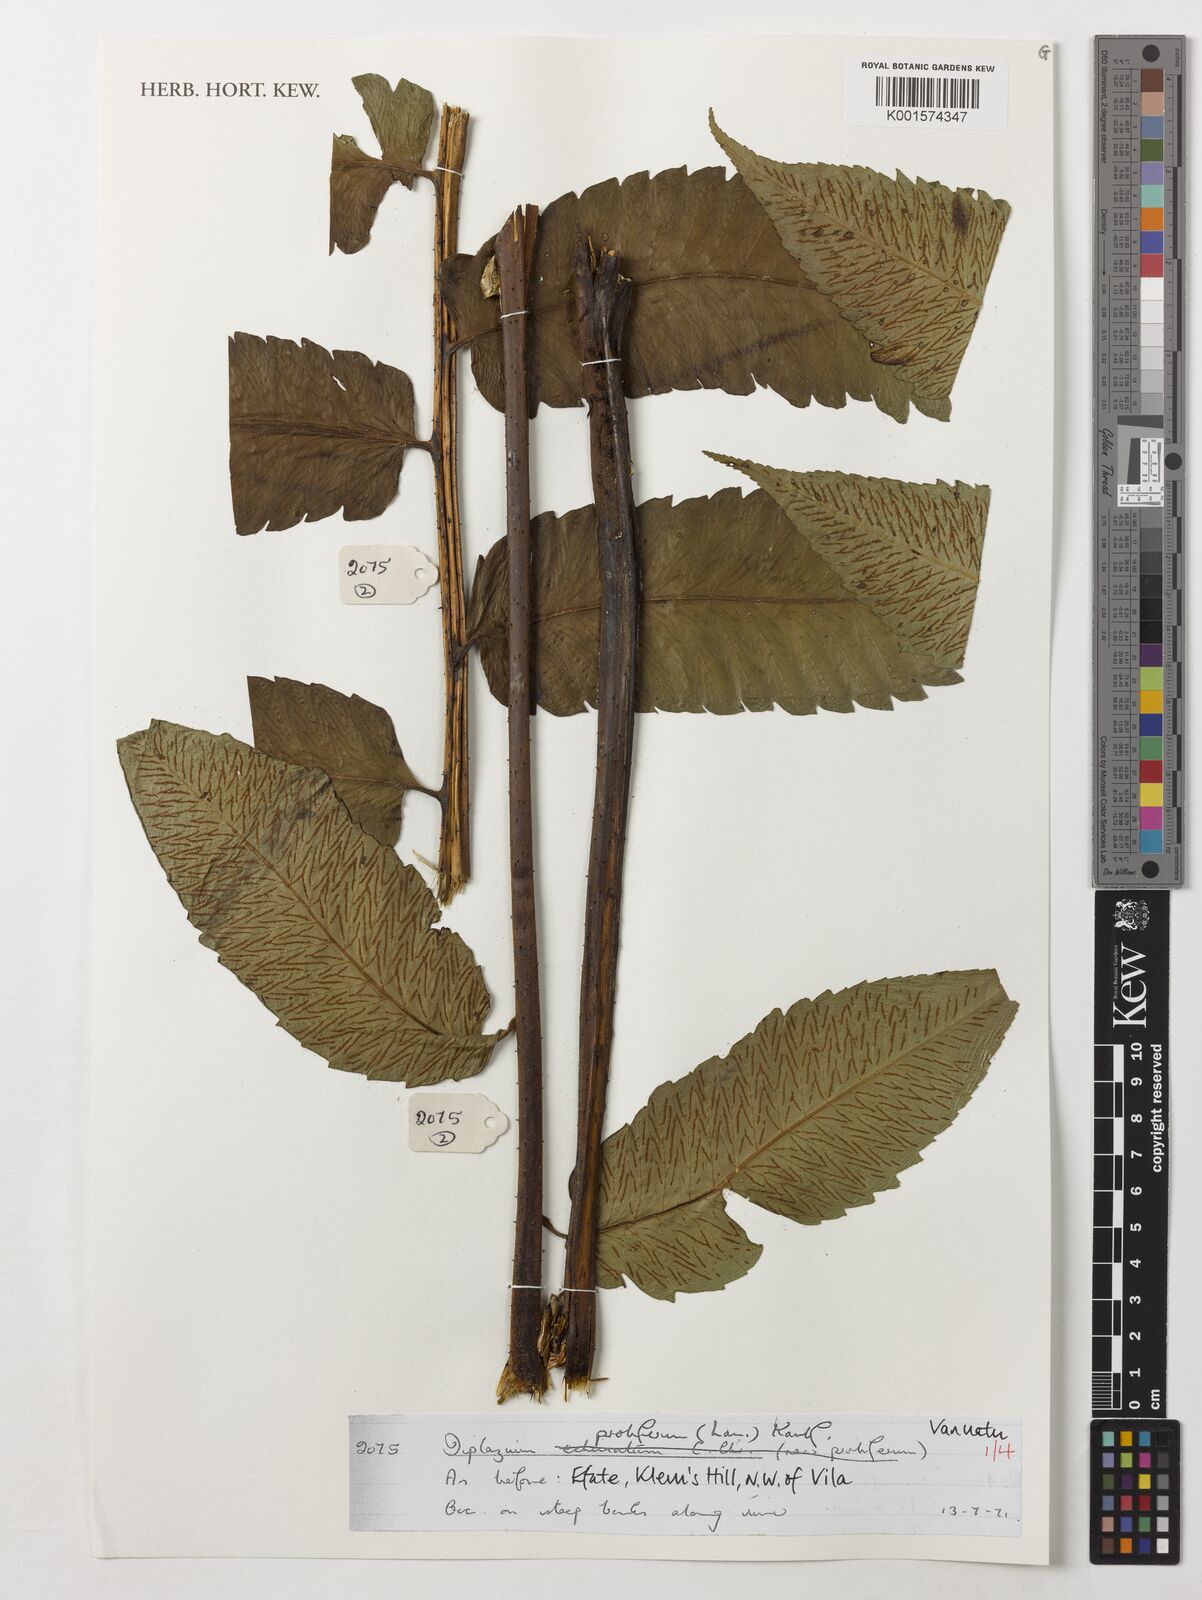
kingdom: Plantae
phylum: Tracheophyta
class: Polypodiopsida
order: Polypodiales
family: Athyriaceae
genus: Diplazium
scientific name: Diplazium proliferum
